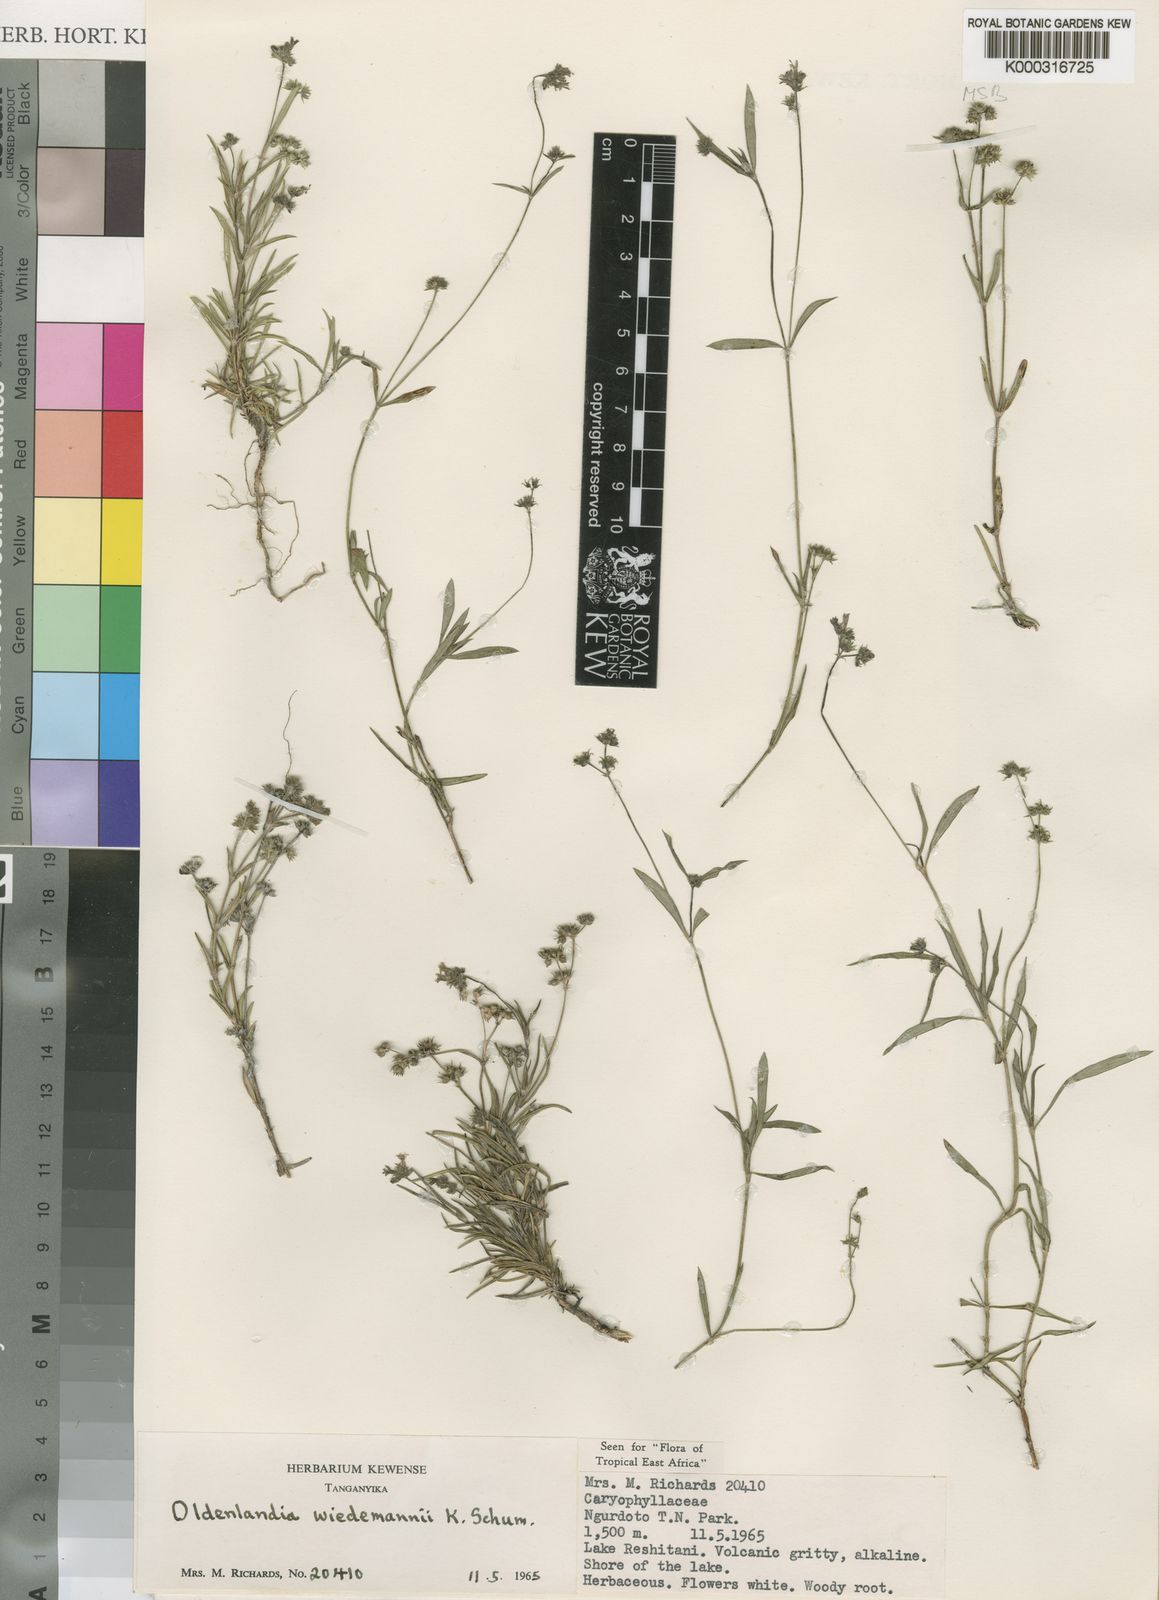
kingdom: Plantae
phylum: Tracheophyta
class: Magnoliopsida
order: Gentianales
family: Rubiaceae
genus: Oldenlandia
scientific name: Oldenlandia wiedemannii
